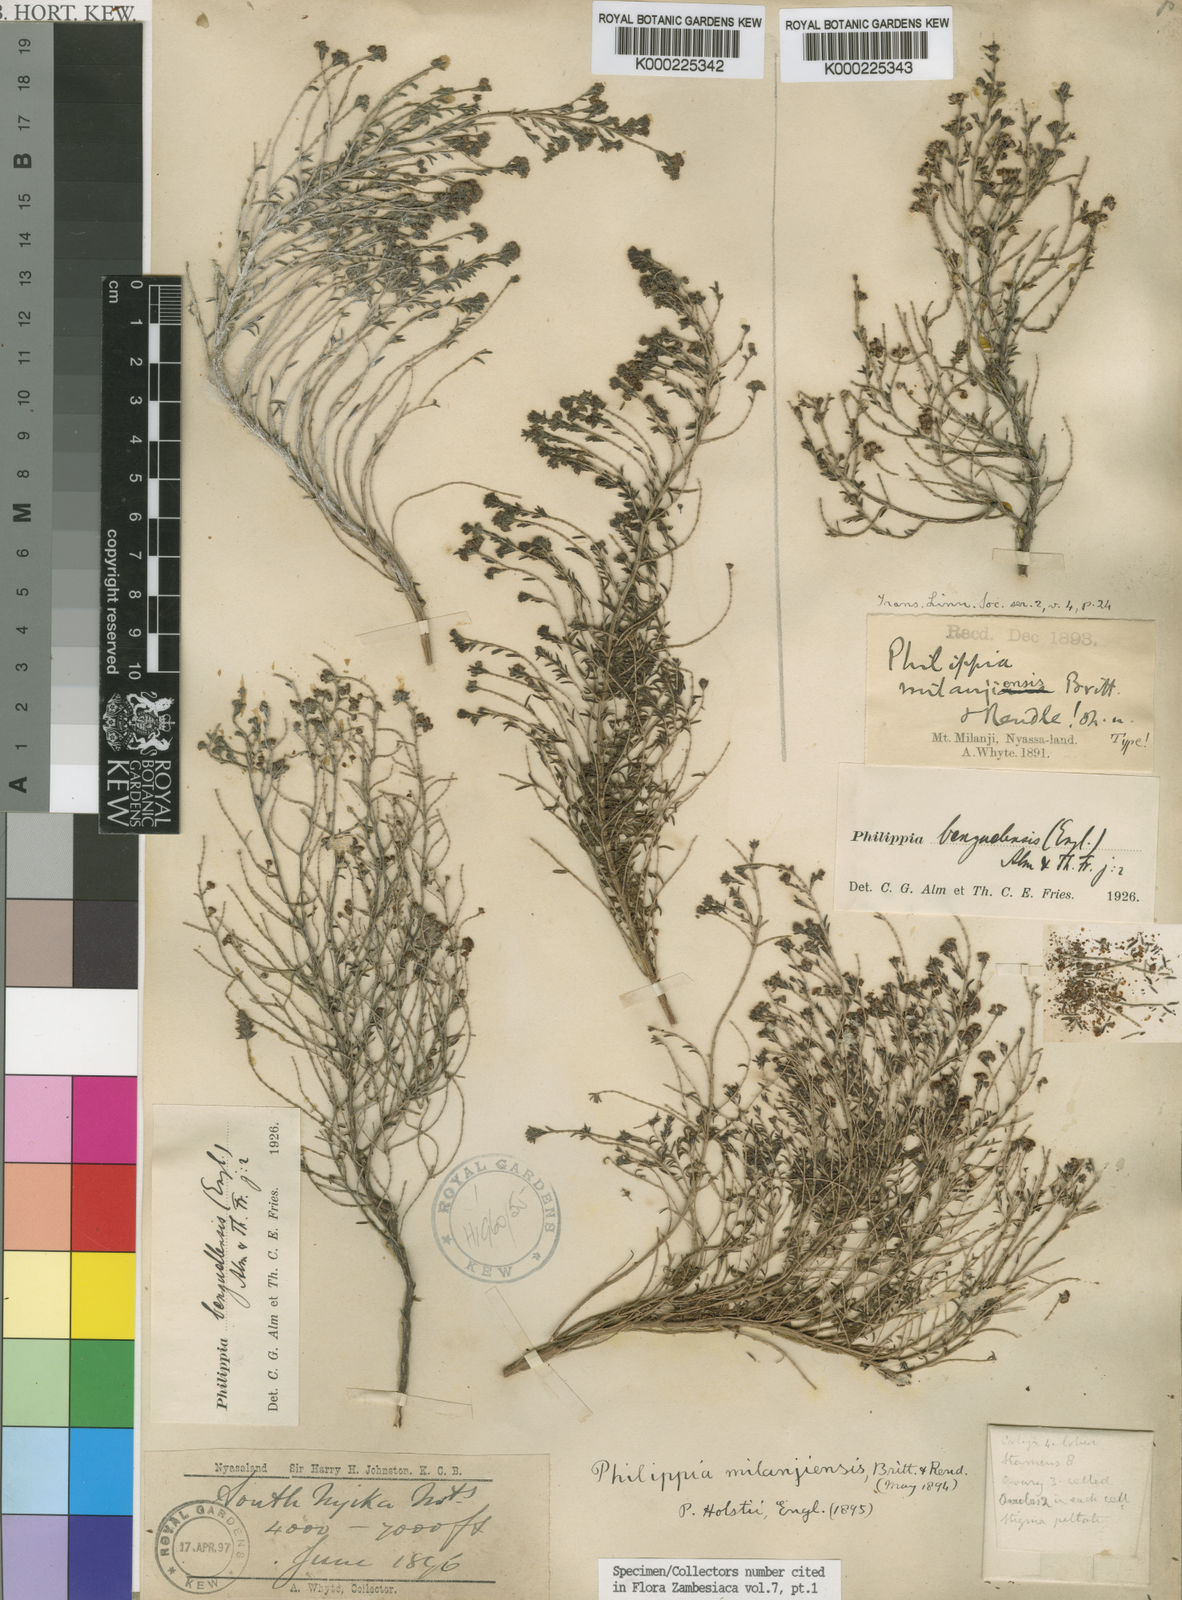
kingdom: Plantae
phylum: Tracheophyta
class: Magnoliopsida
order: Ericales
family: Ericaceae
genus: Erica
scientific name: Erica benguelensis
